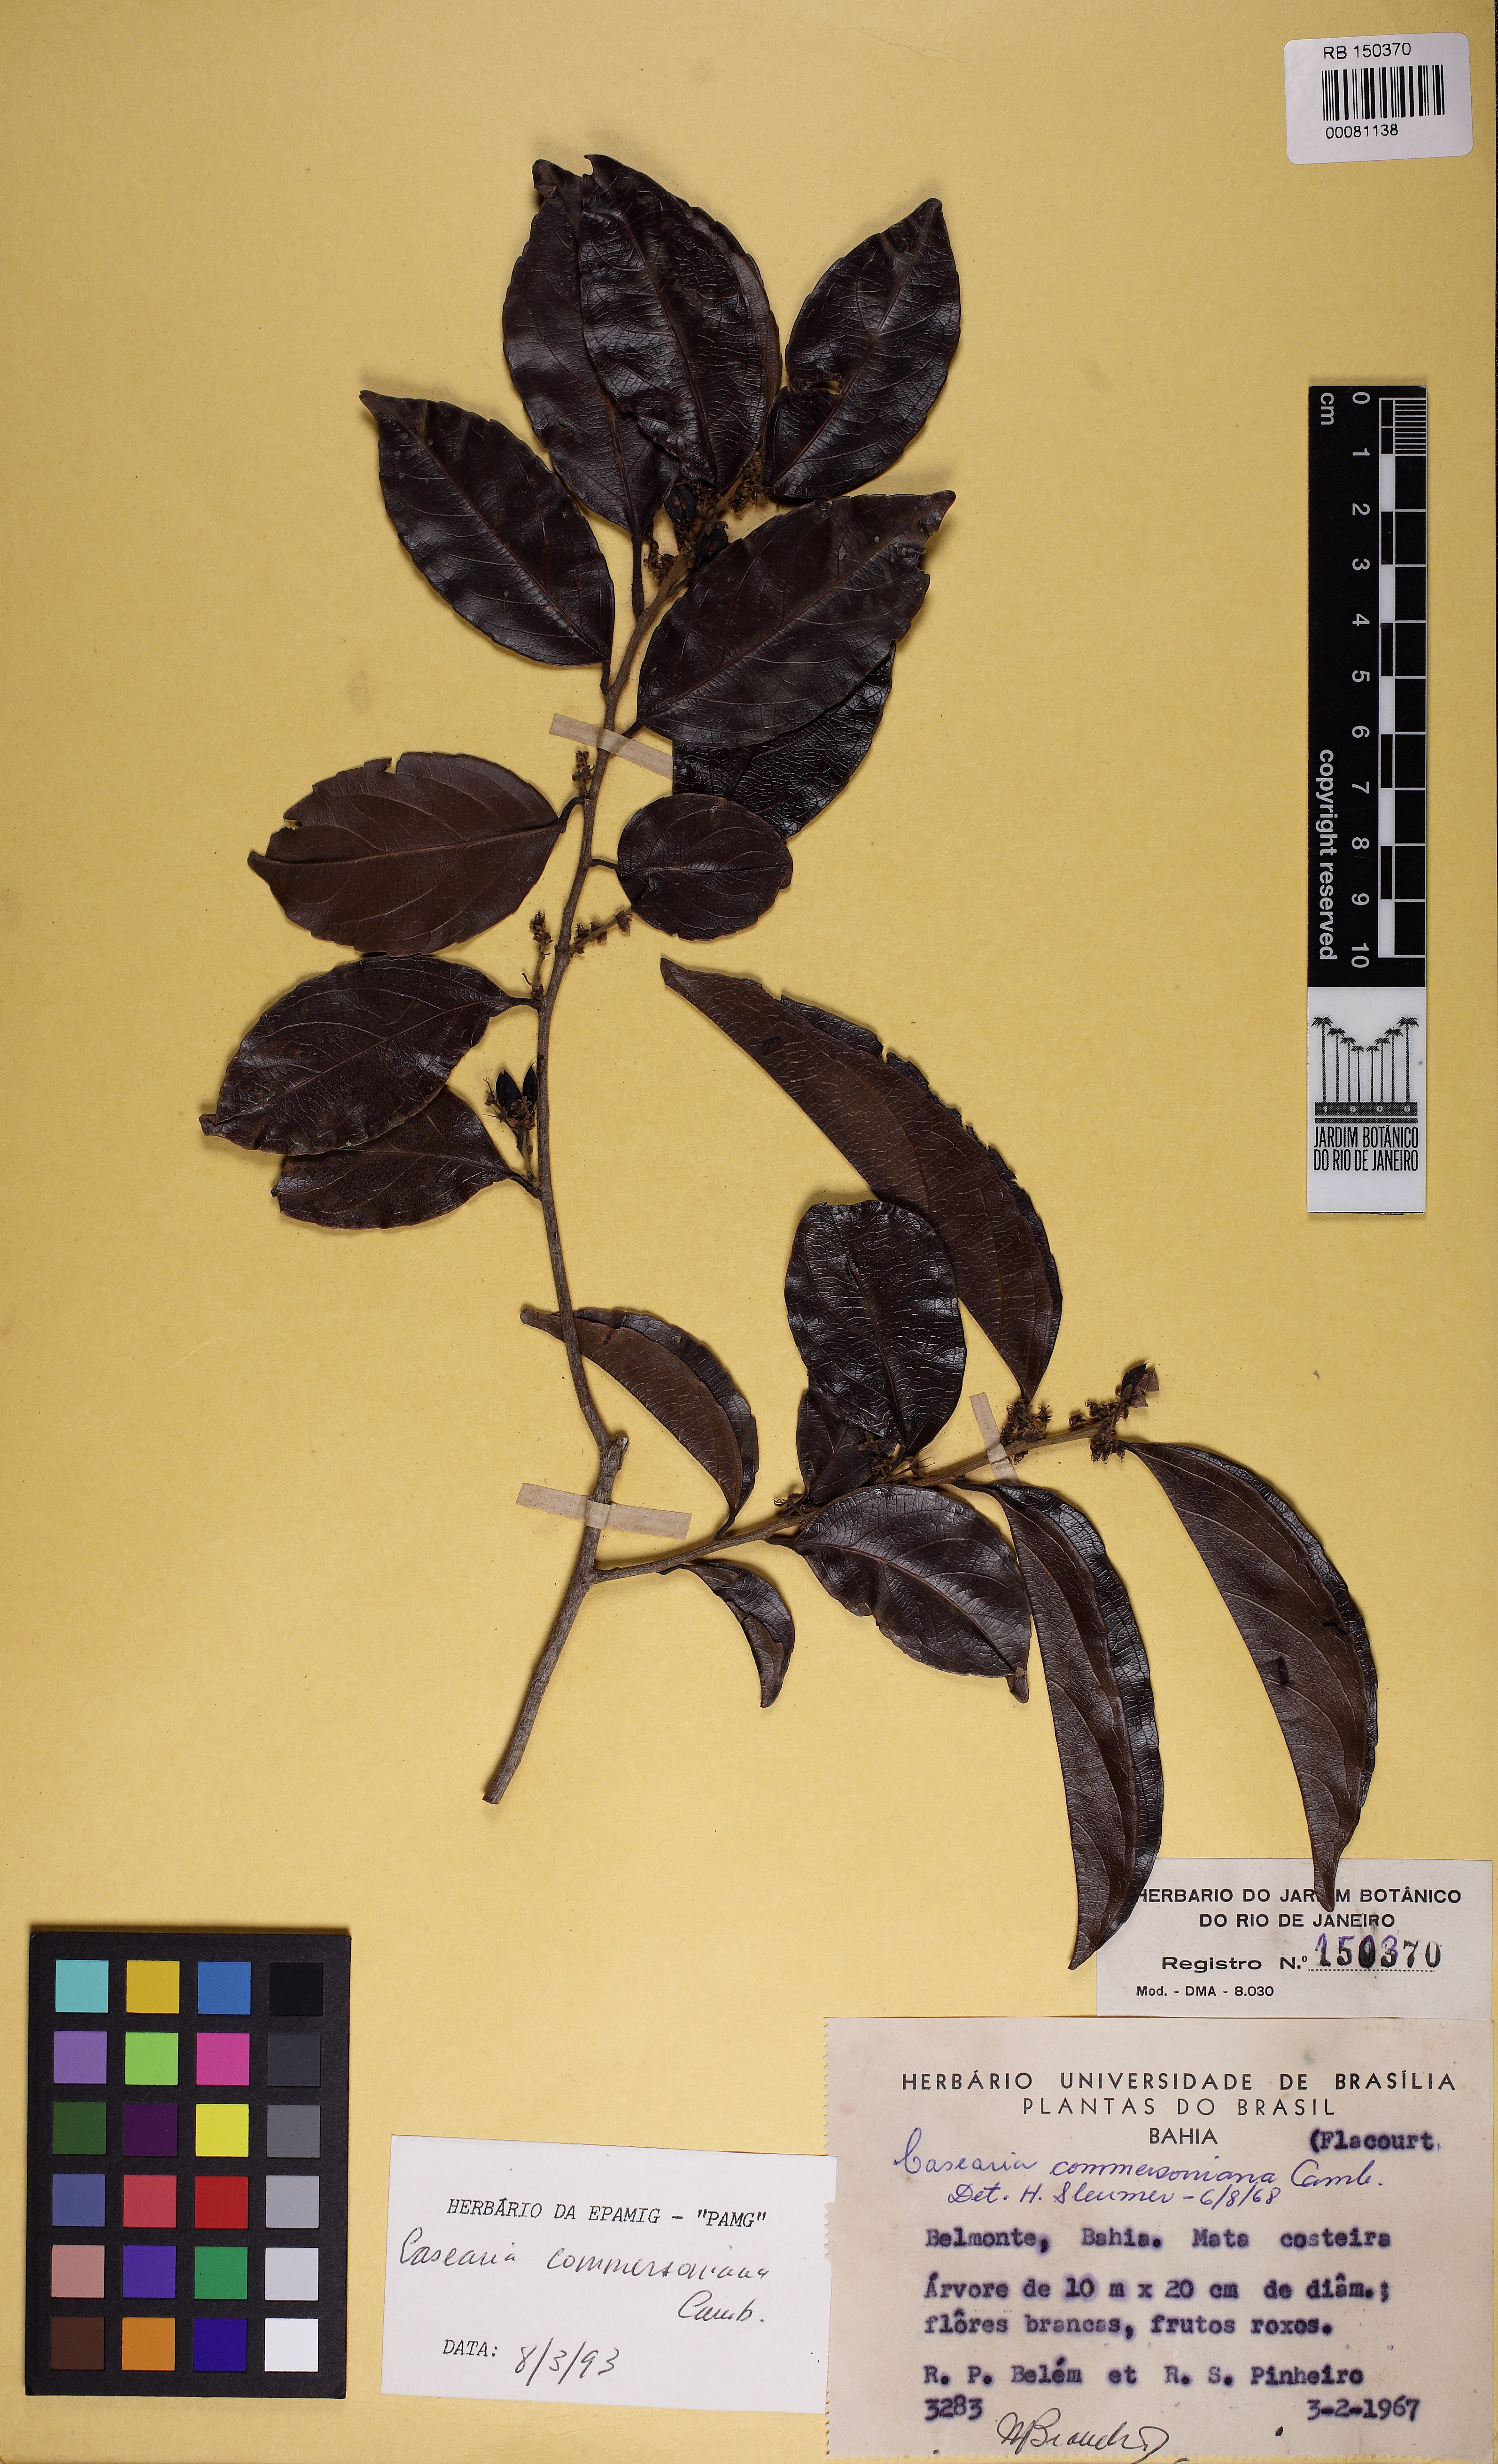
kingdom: Plantae
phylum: Tracheophyta
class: Magnoliopsida
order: Malpighiales
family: Salicaceae
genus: Piparea
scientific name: Piparea dentata
